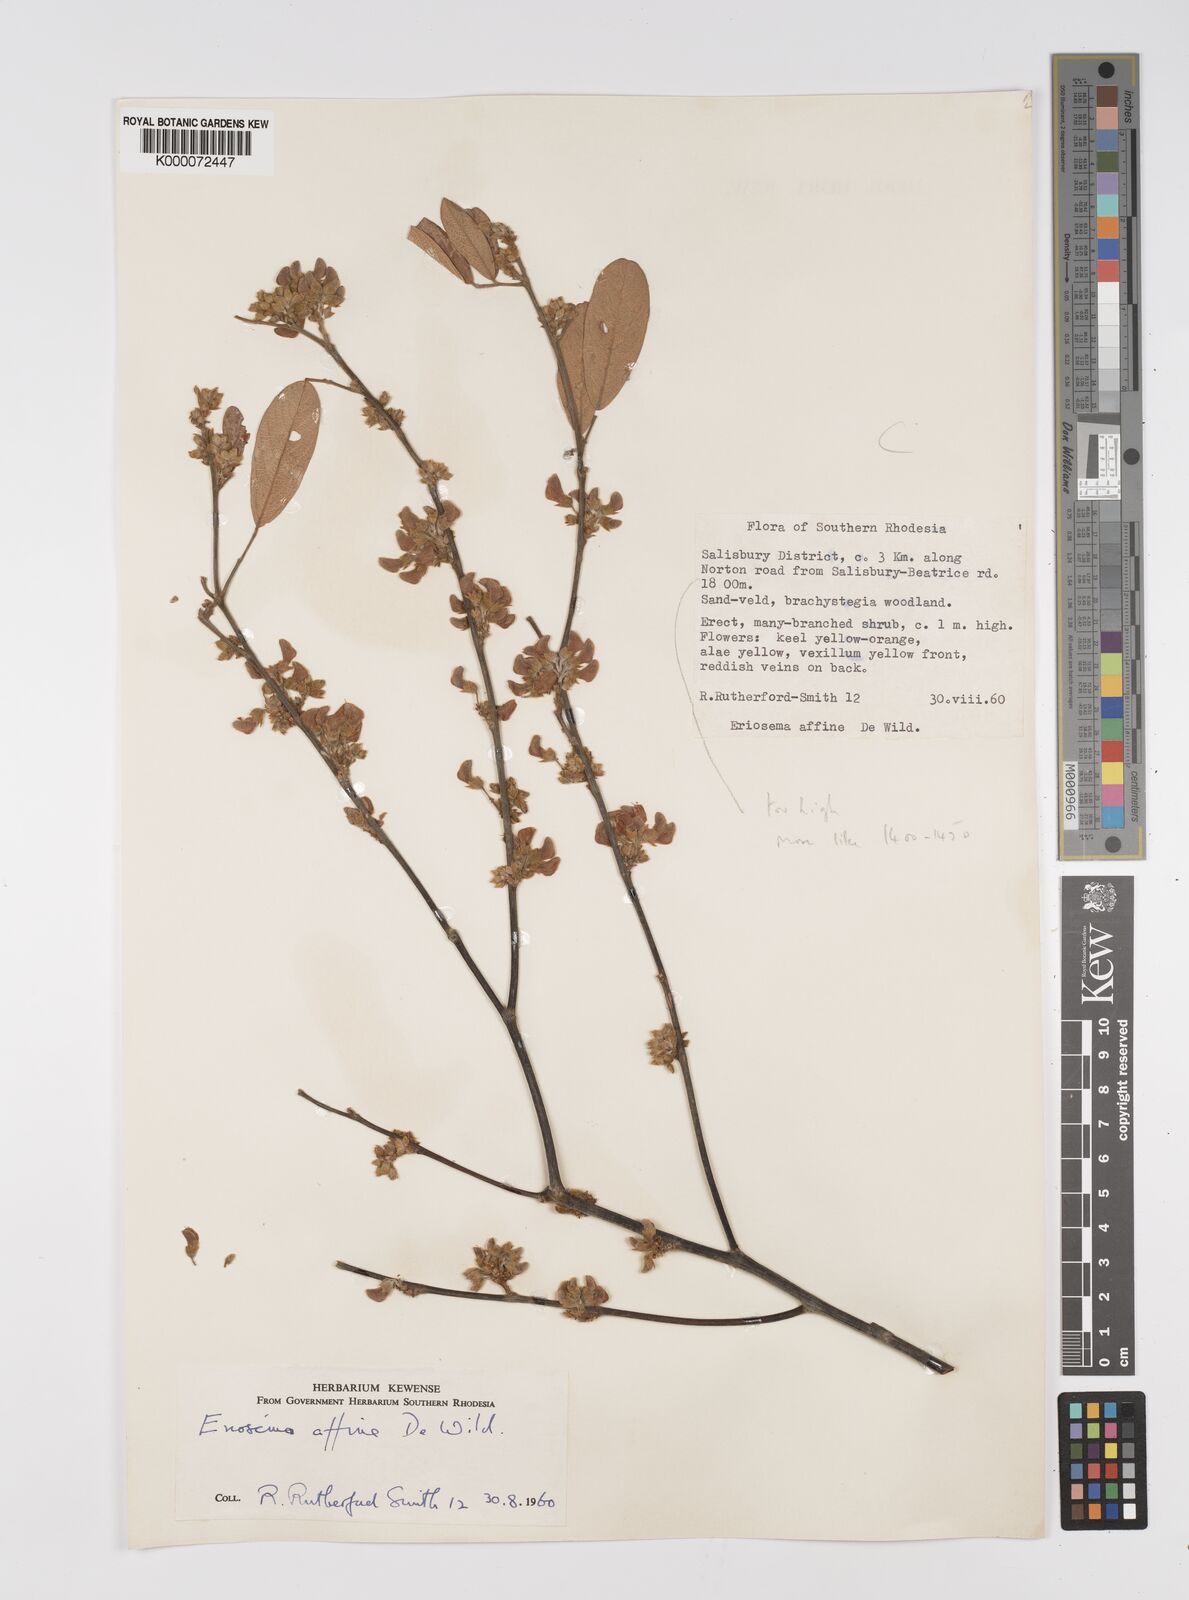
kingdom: Plantae
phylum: Tracheophyta
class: Magnoliopsida
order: Fabales
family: Fabaceae
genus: Eriosema
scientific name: Eriosema affine
